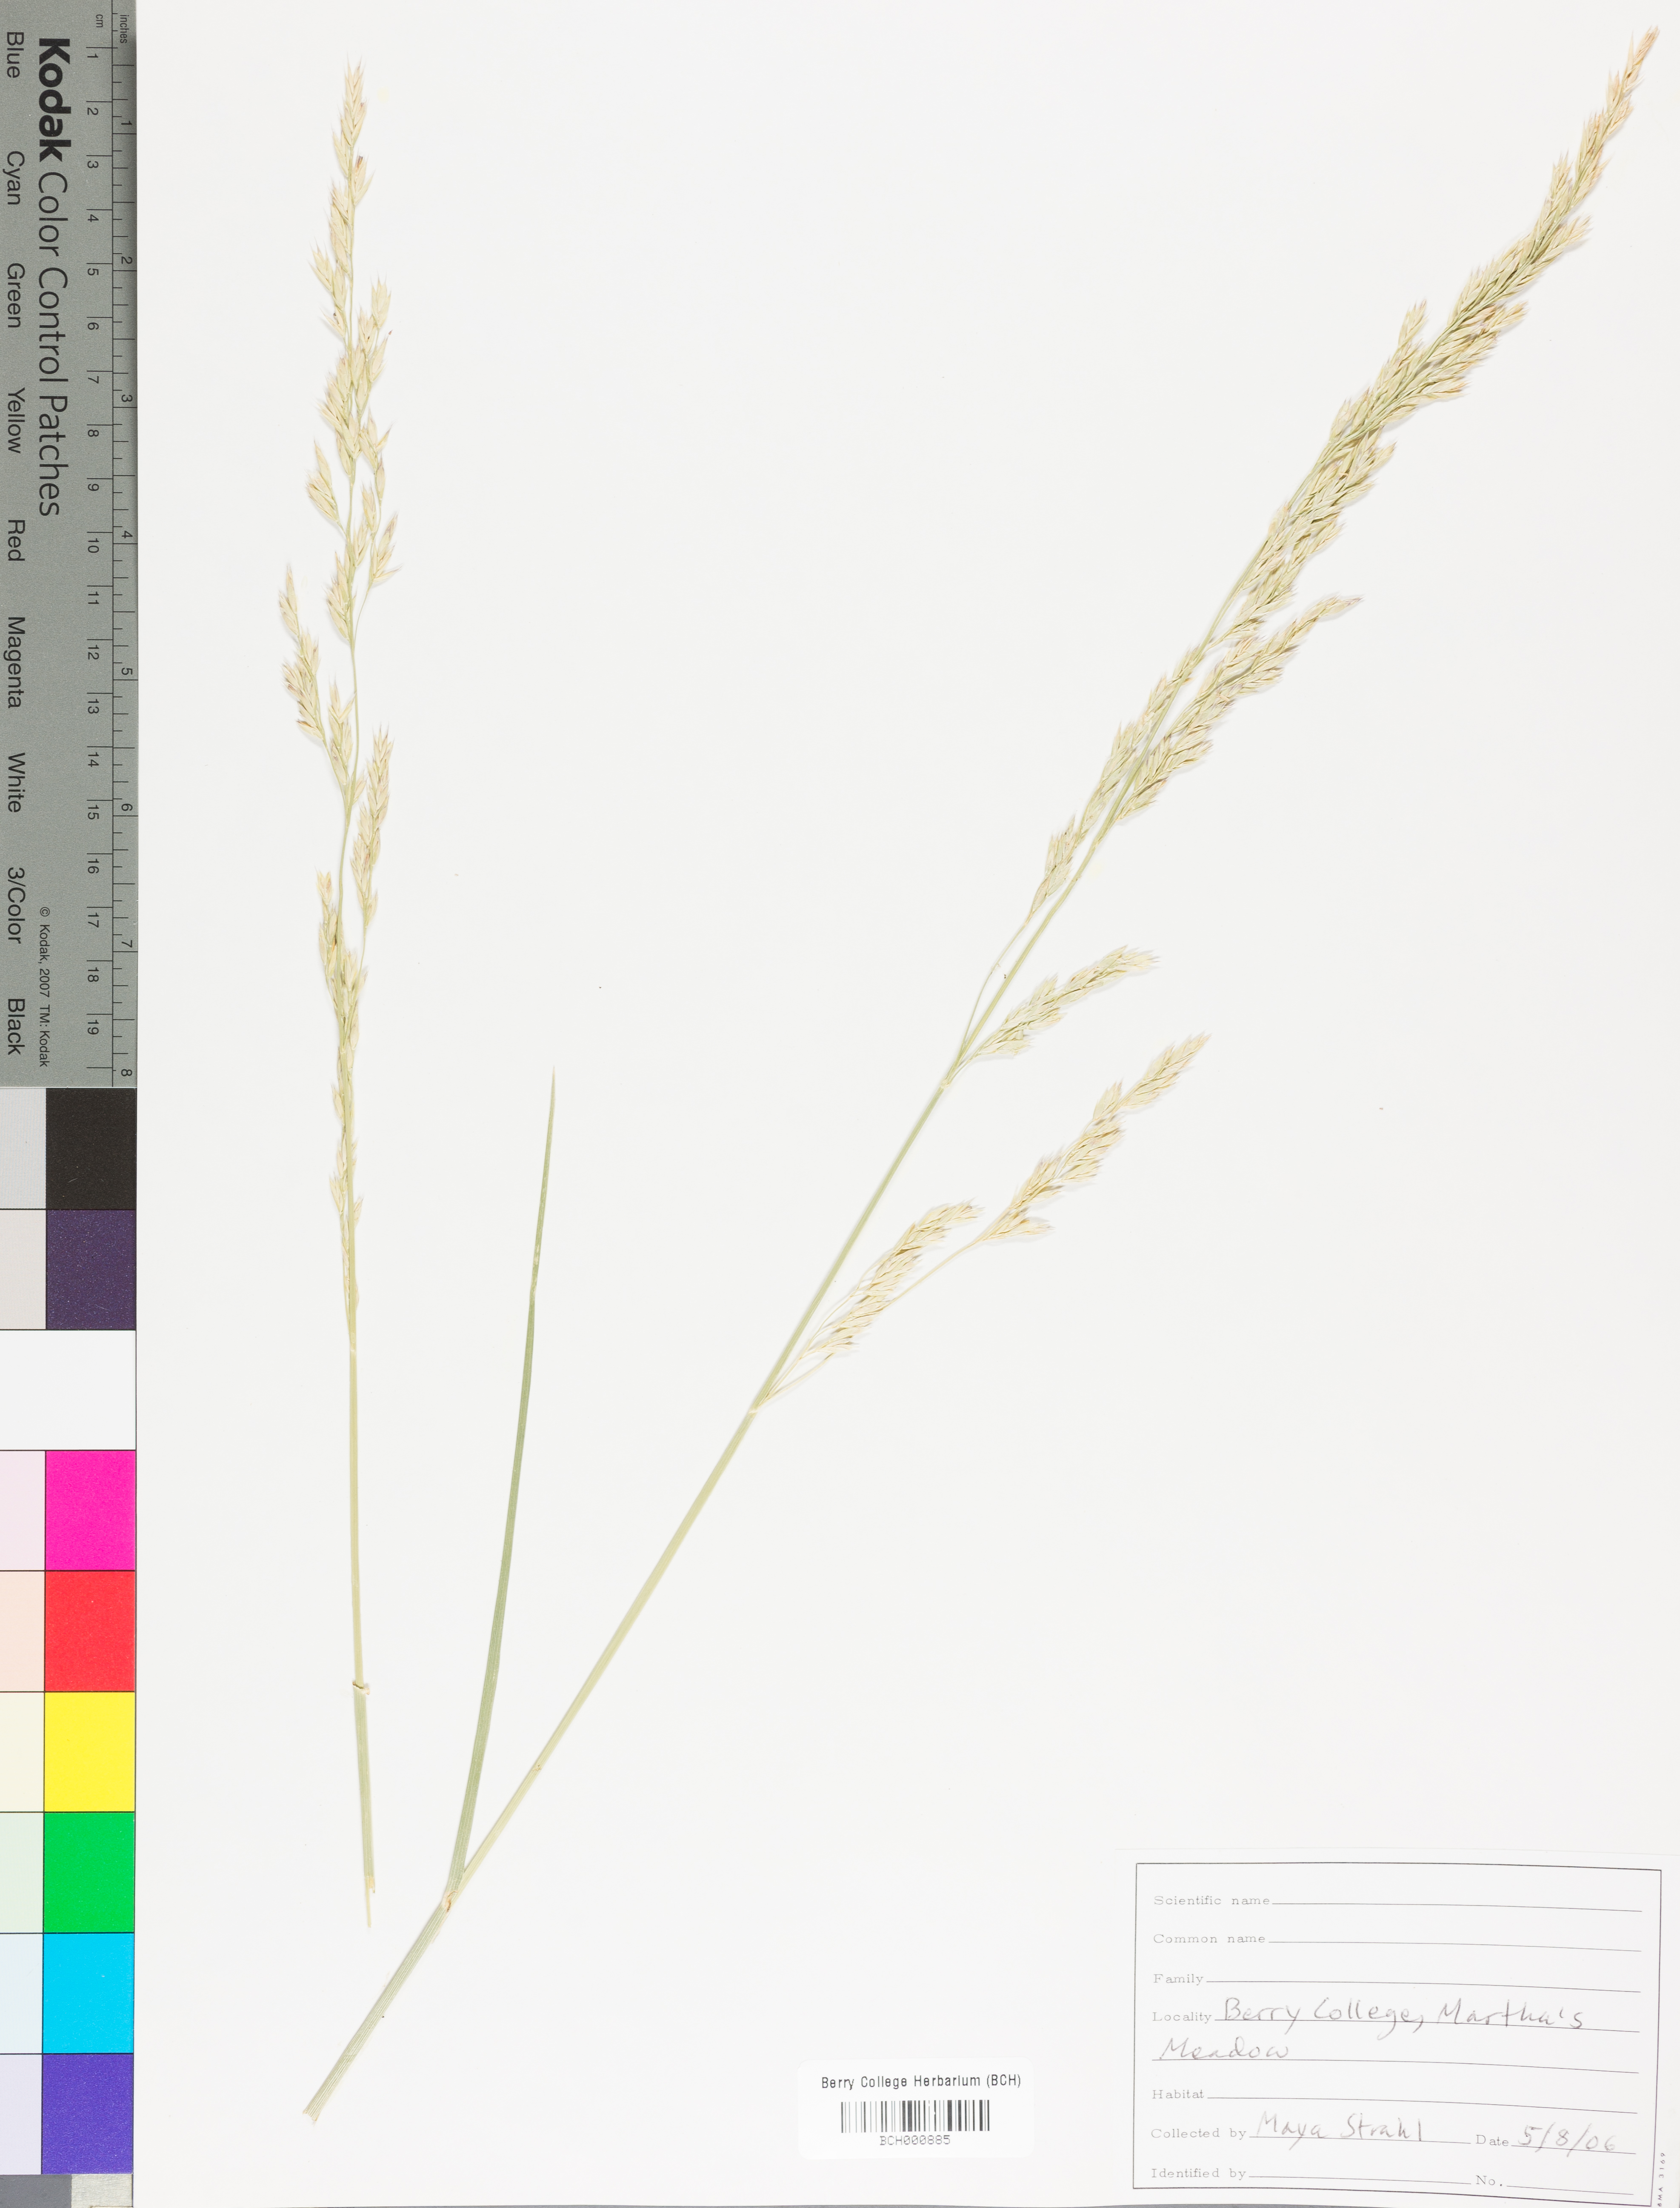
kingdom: Plantae
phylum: Tracheophyta
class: Magnoliopsida
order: Lamiales
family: Acanthaceae
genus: Adhatoda
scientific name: Adhatoda
